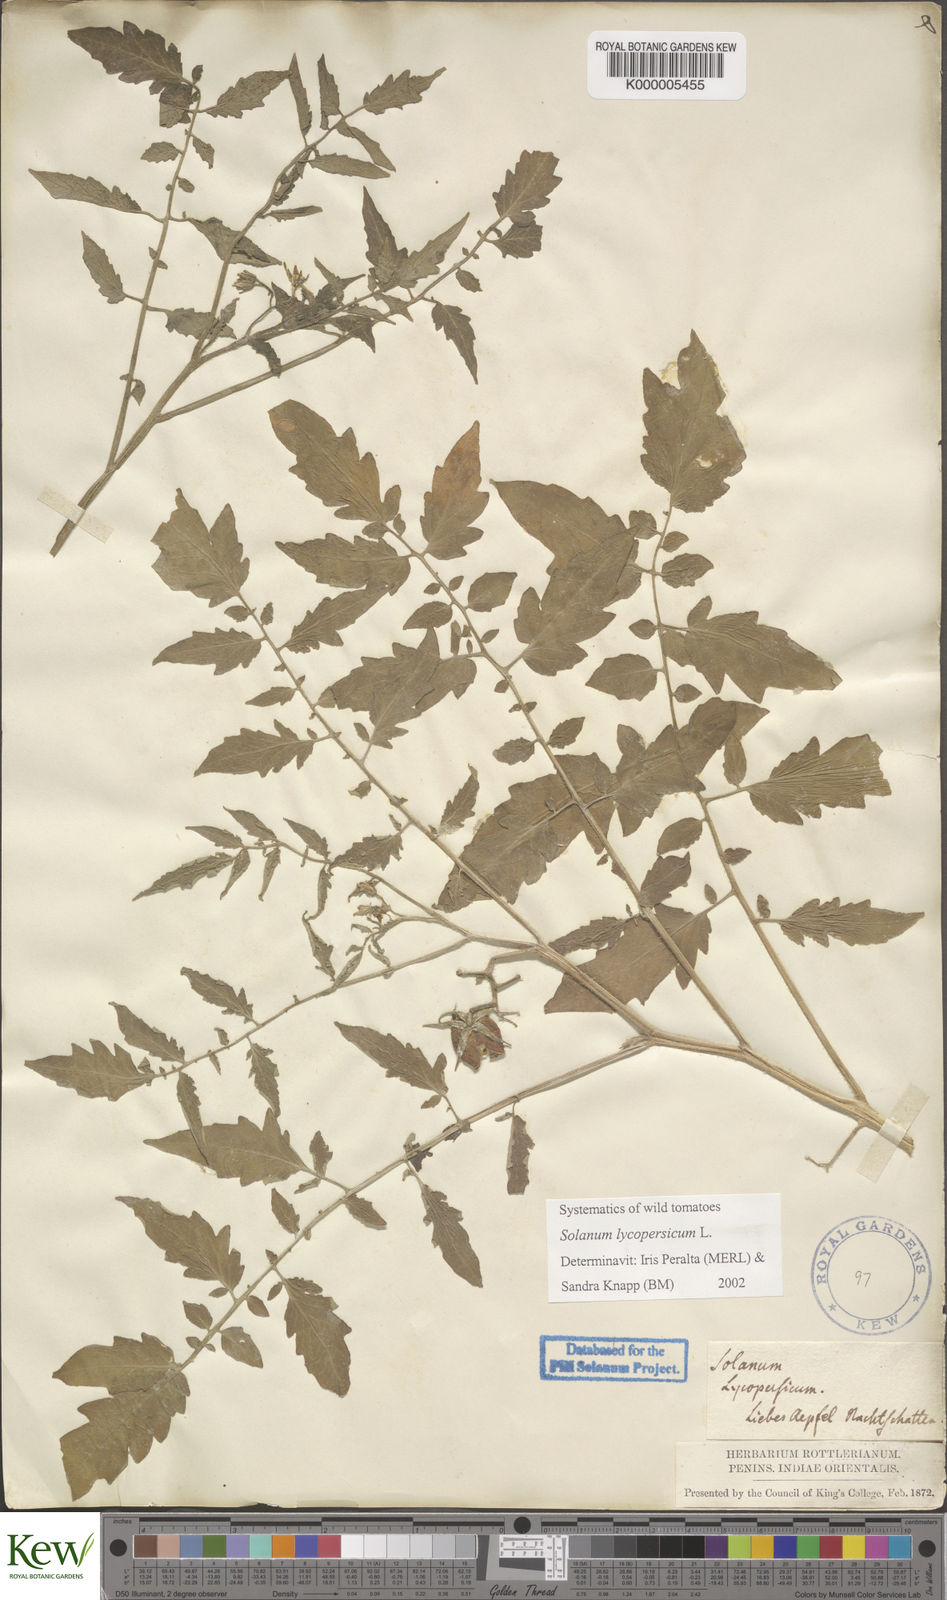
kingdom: Plantae
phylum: Tracheophyta
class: Magnoliopsida
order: Solanales
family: Solanaceae
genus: Solanum
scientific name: Solanum lycopersicum
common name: Garden tomato
